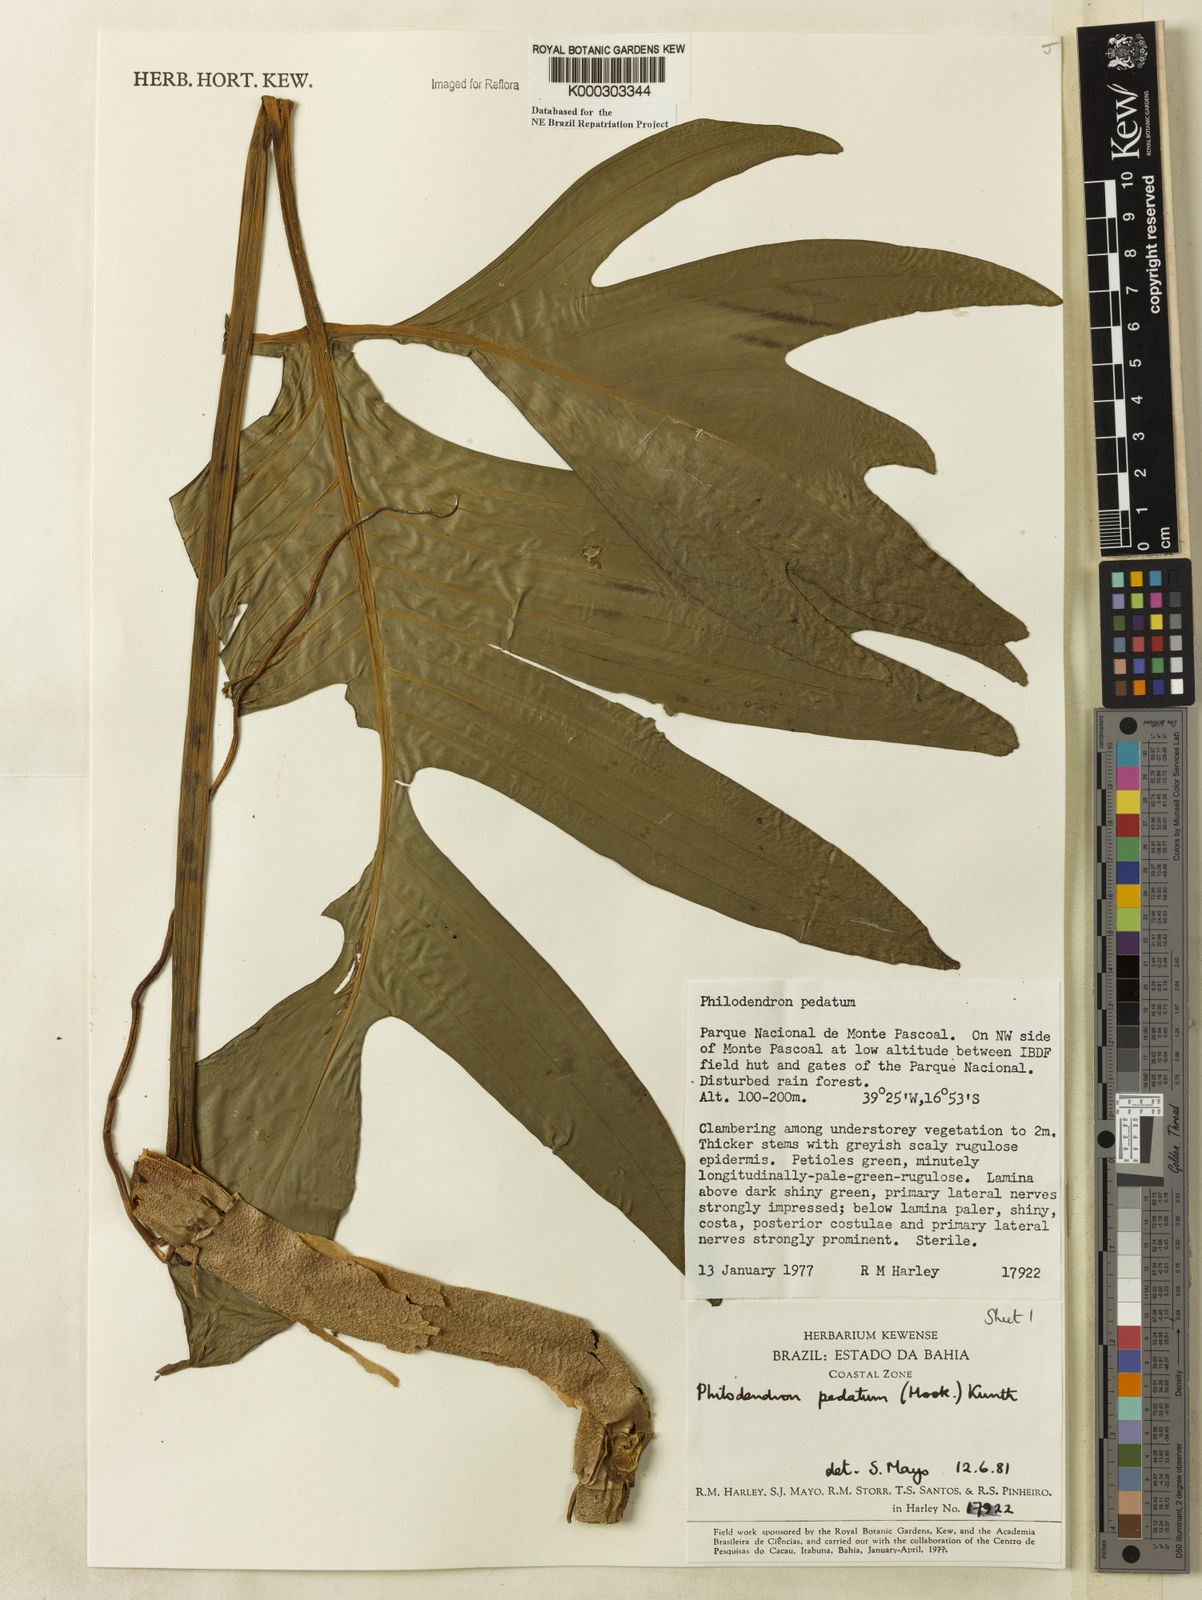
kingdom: Plantae
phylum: Tracheophyta
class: Liliopsida
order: Alismatales
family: Araceae
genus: Philodendron
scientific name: Philodendron pedatum
